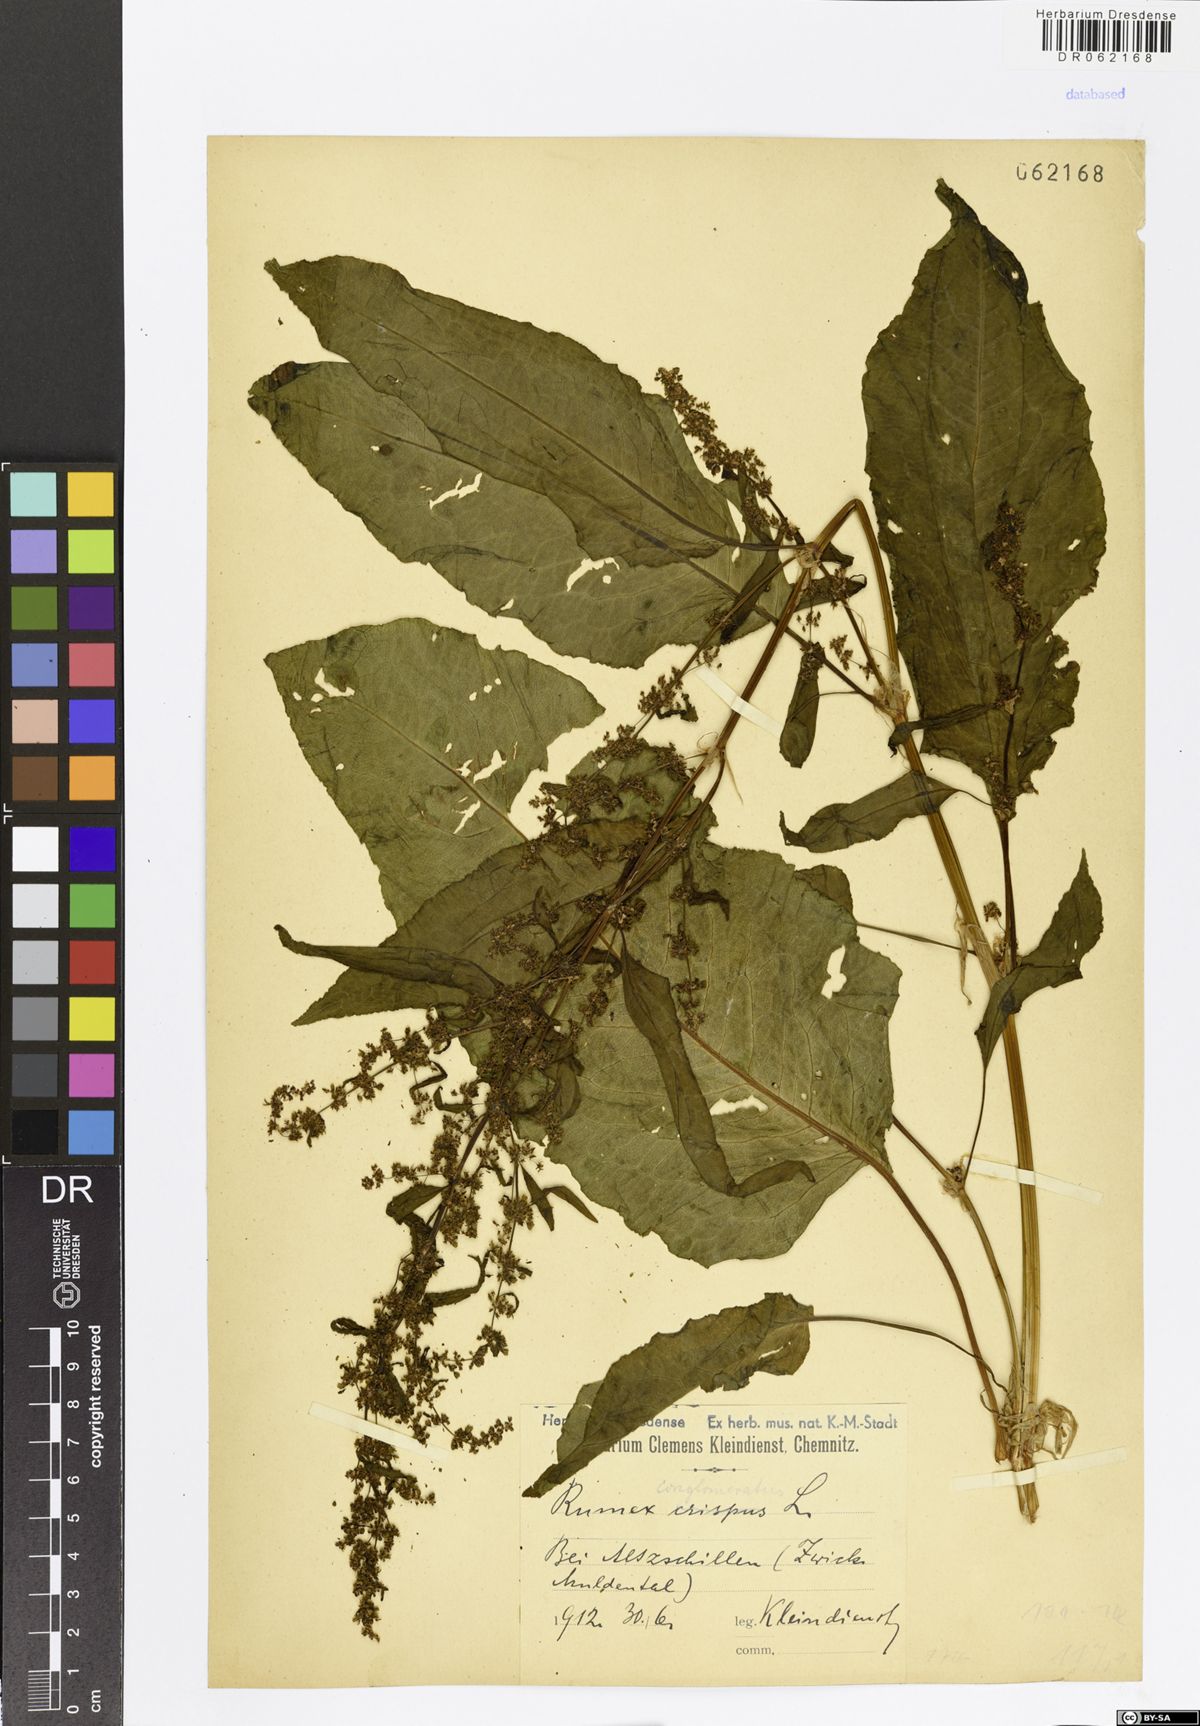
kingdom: Plantae
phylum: Tracheophyta
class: Magnoliopsida
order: Caryophyllales
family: Polygonaceae
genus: Rumex
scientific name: Rumex conglomeratus
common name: Clustered dock
